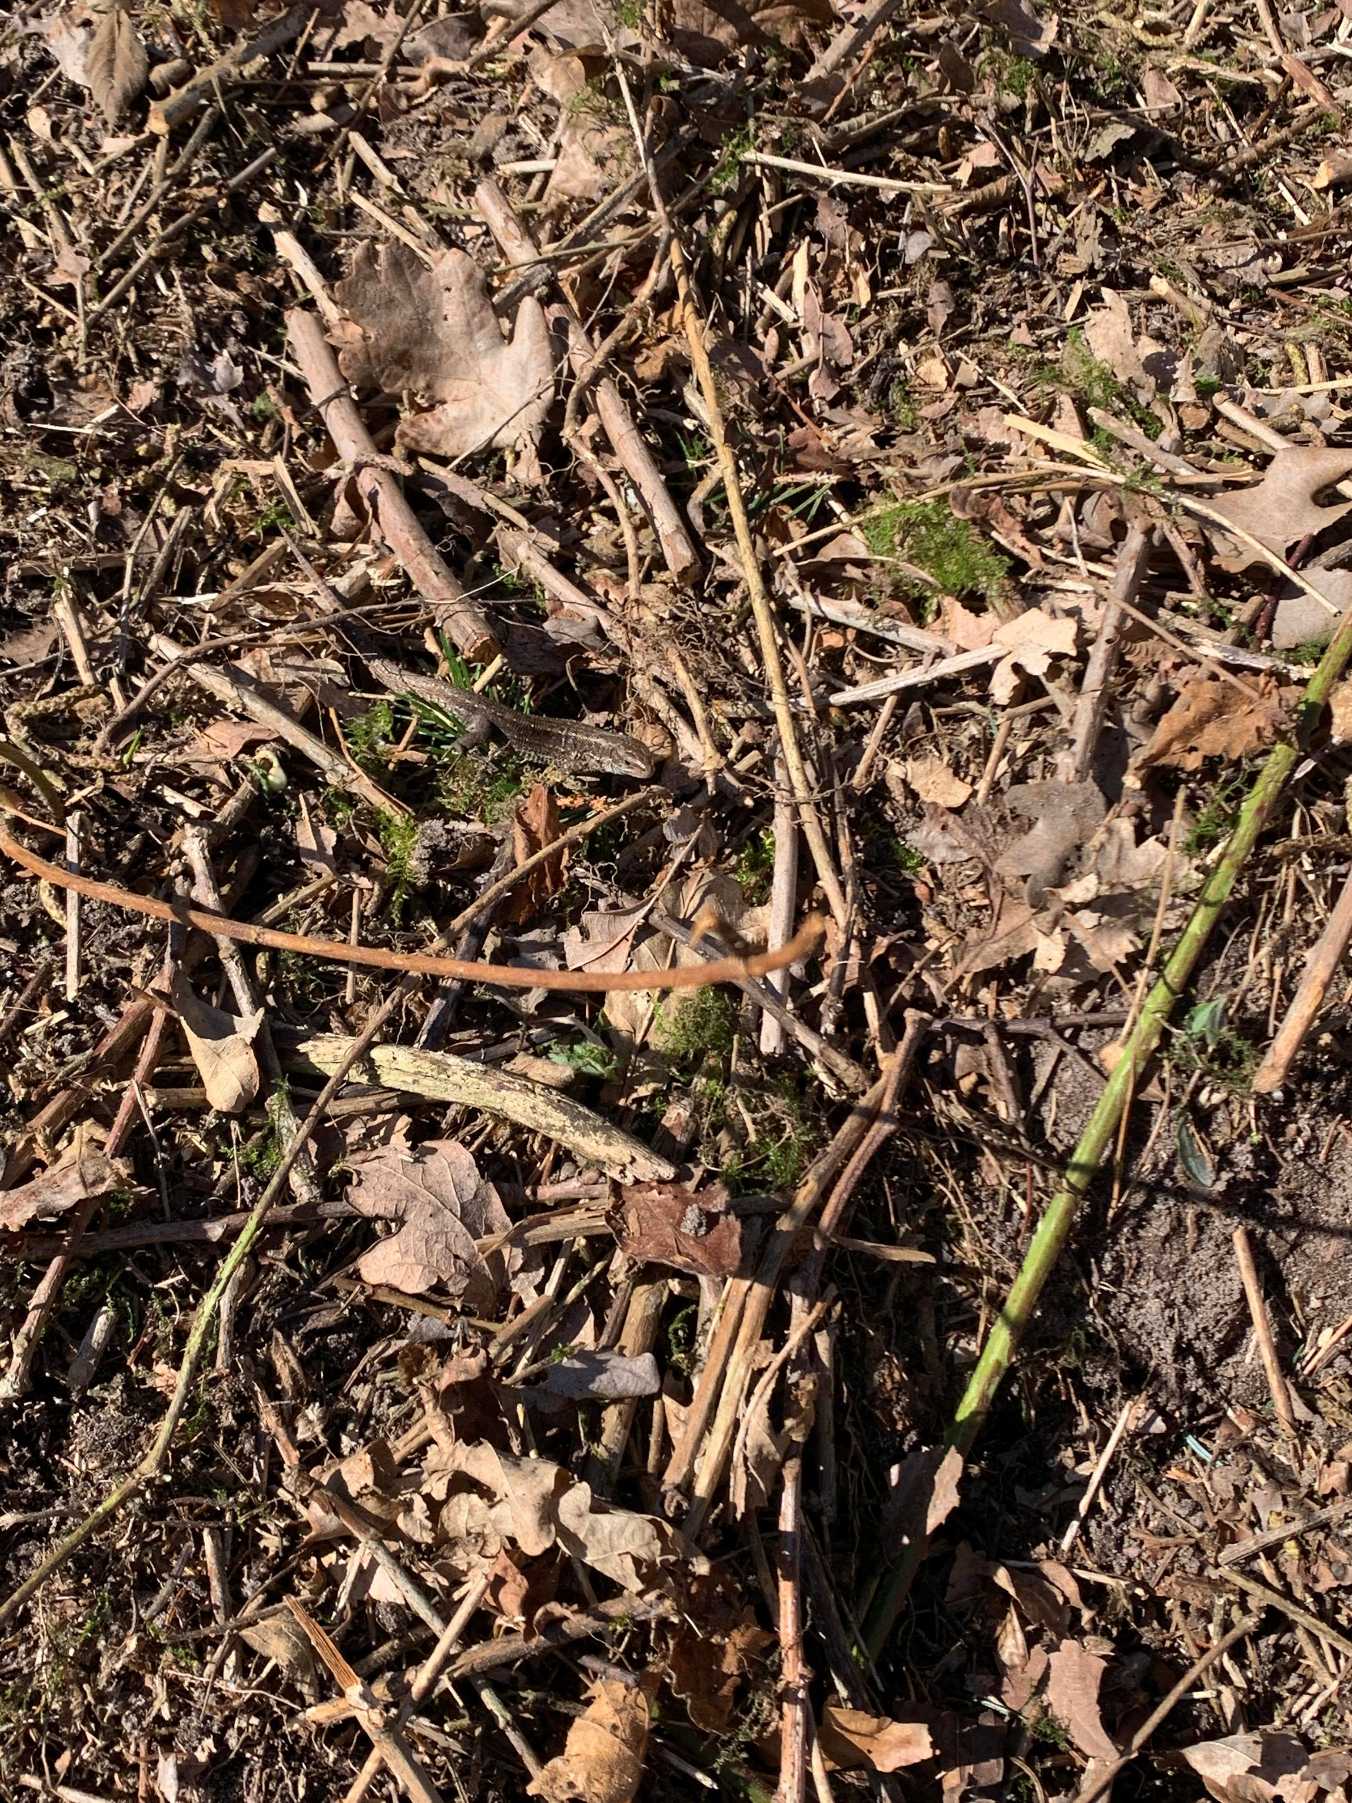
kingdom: Animalia
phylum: Chordata
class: Squamata
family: Lacertidae
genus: Zootoca
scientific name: Zootoca vivipara
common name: Skovfirben
